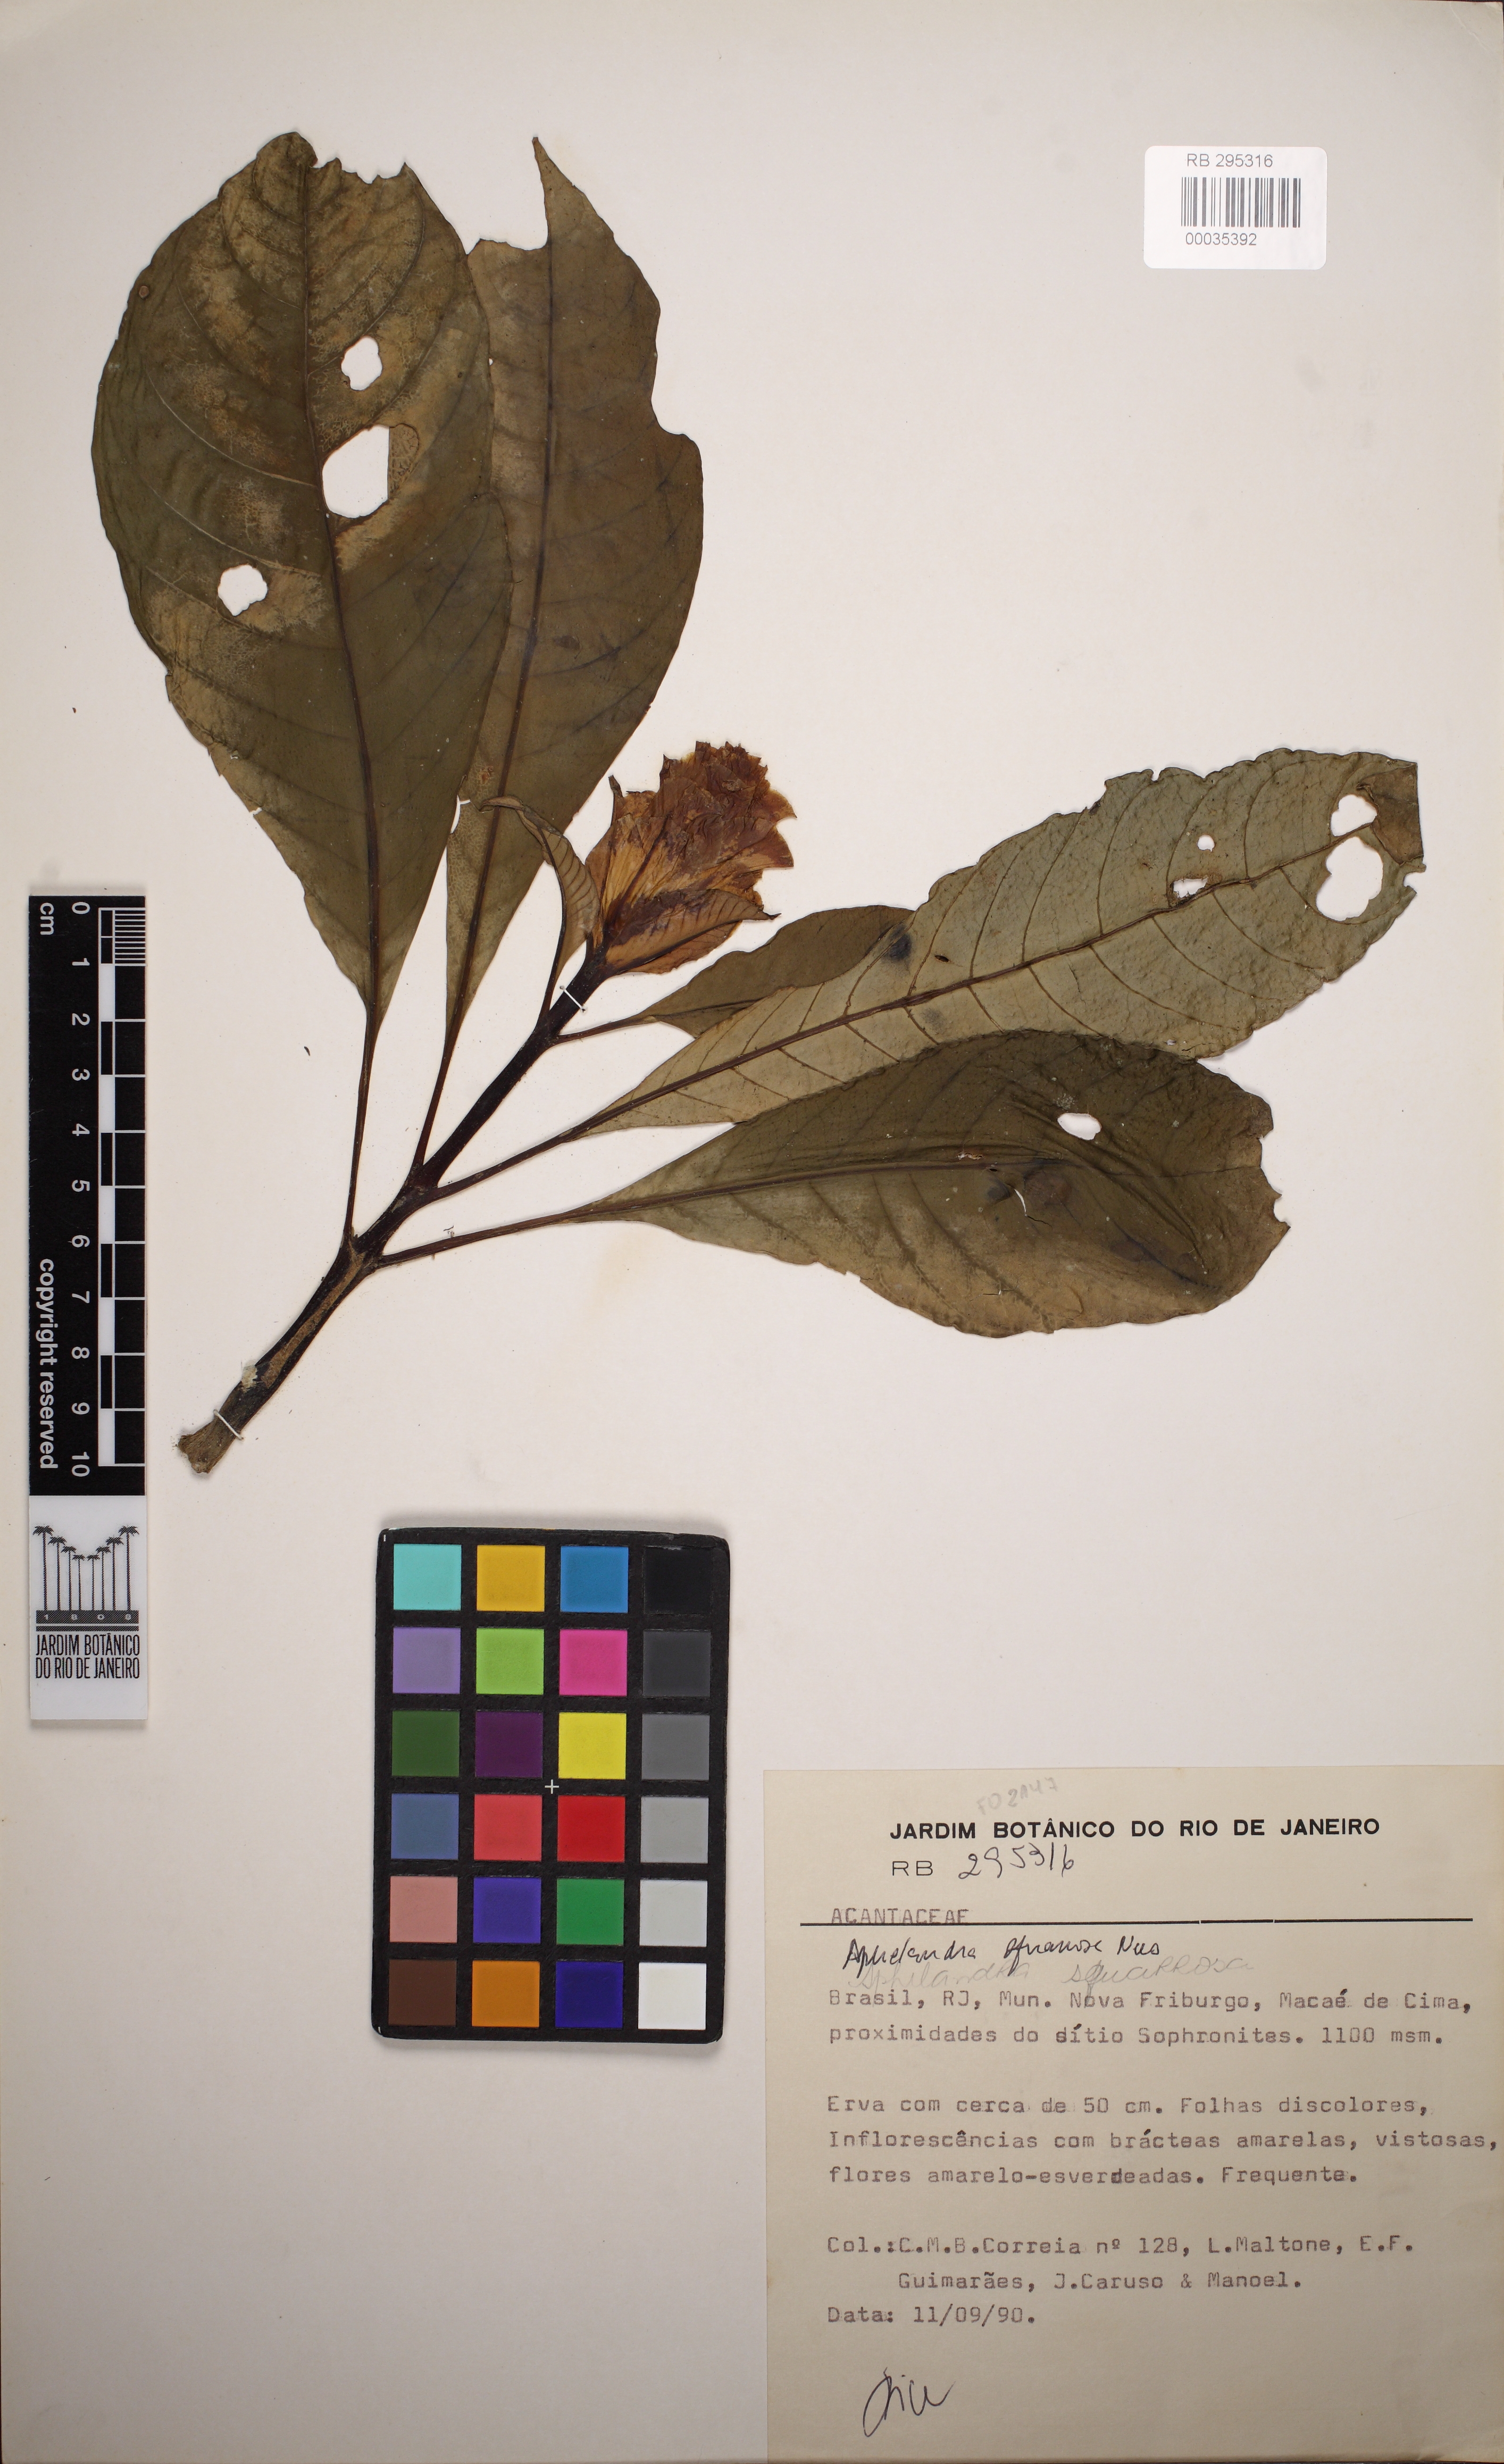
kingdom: Plantae
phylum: Tracheophyta
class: Magnoliopsida
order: Lamiales
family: Acanthaceae
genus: Aphelandra
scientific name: Aphelandra
